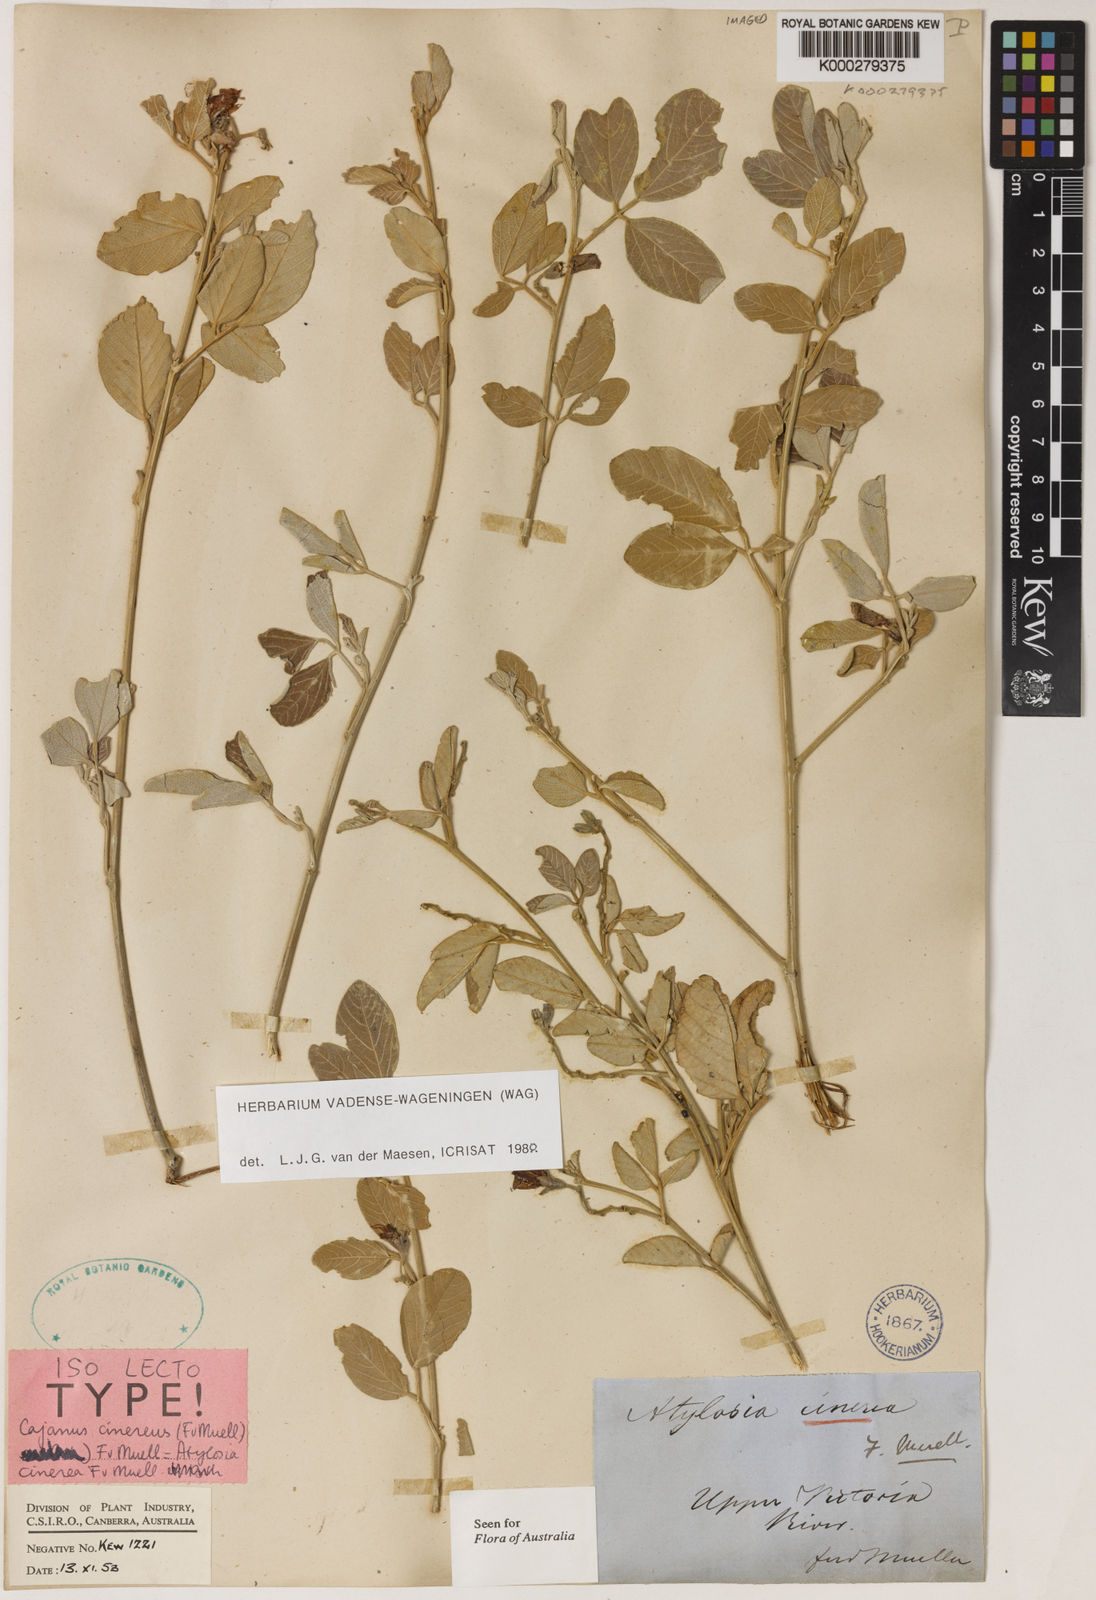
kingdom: Plantae
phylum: Tracheophyta
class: Magnoliopsida
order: Fabales
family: Fabaceae
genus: Cajanus
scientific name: Cajanus cinereus
